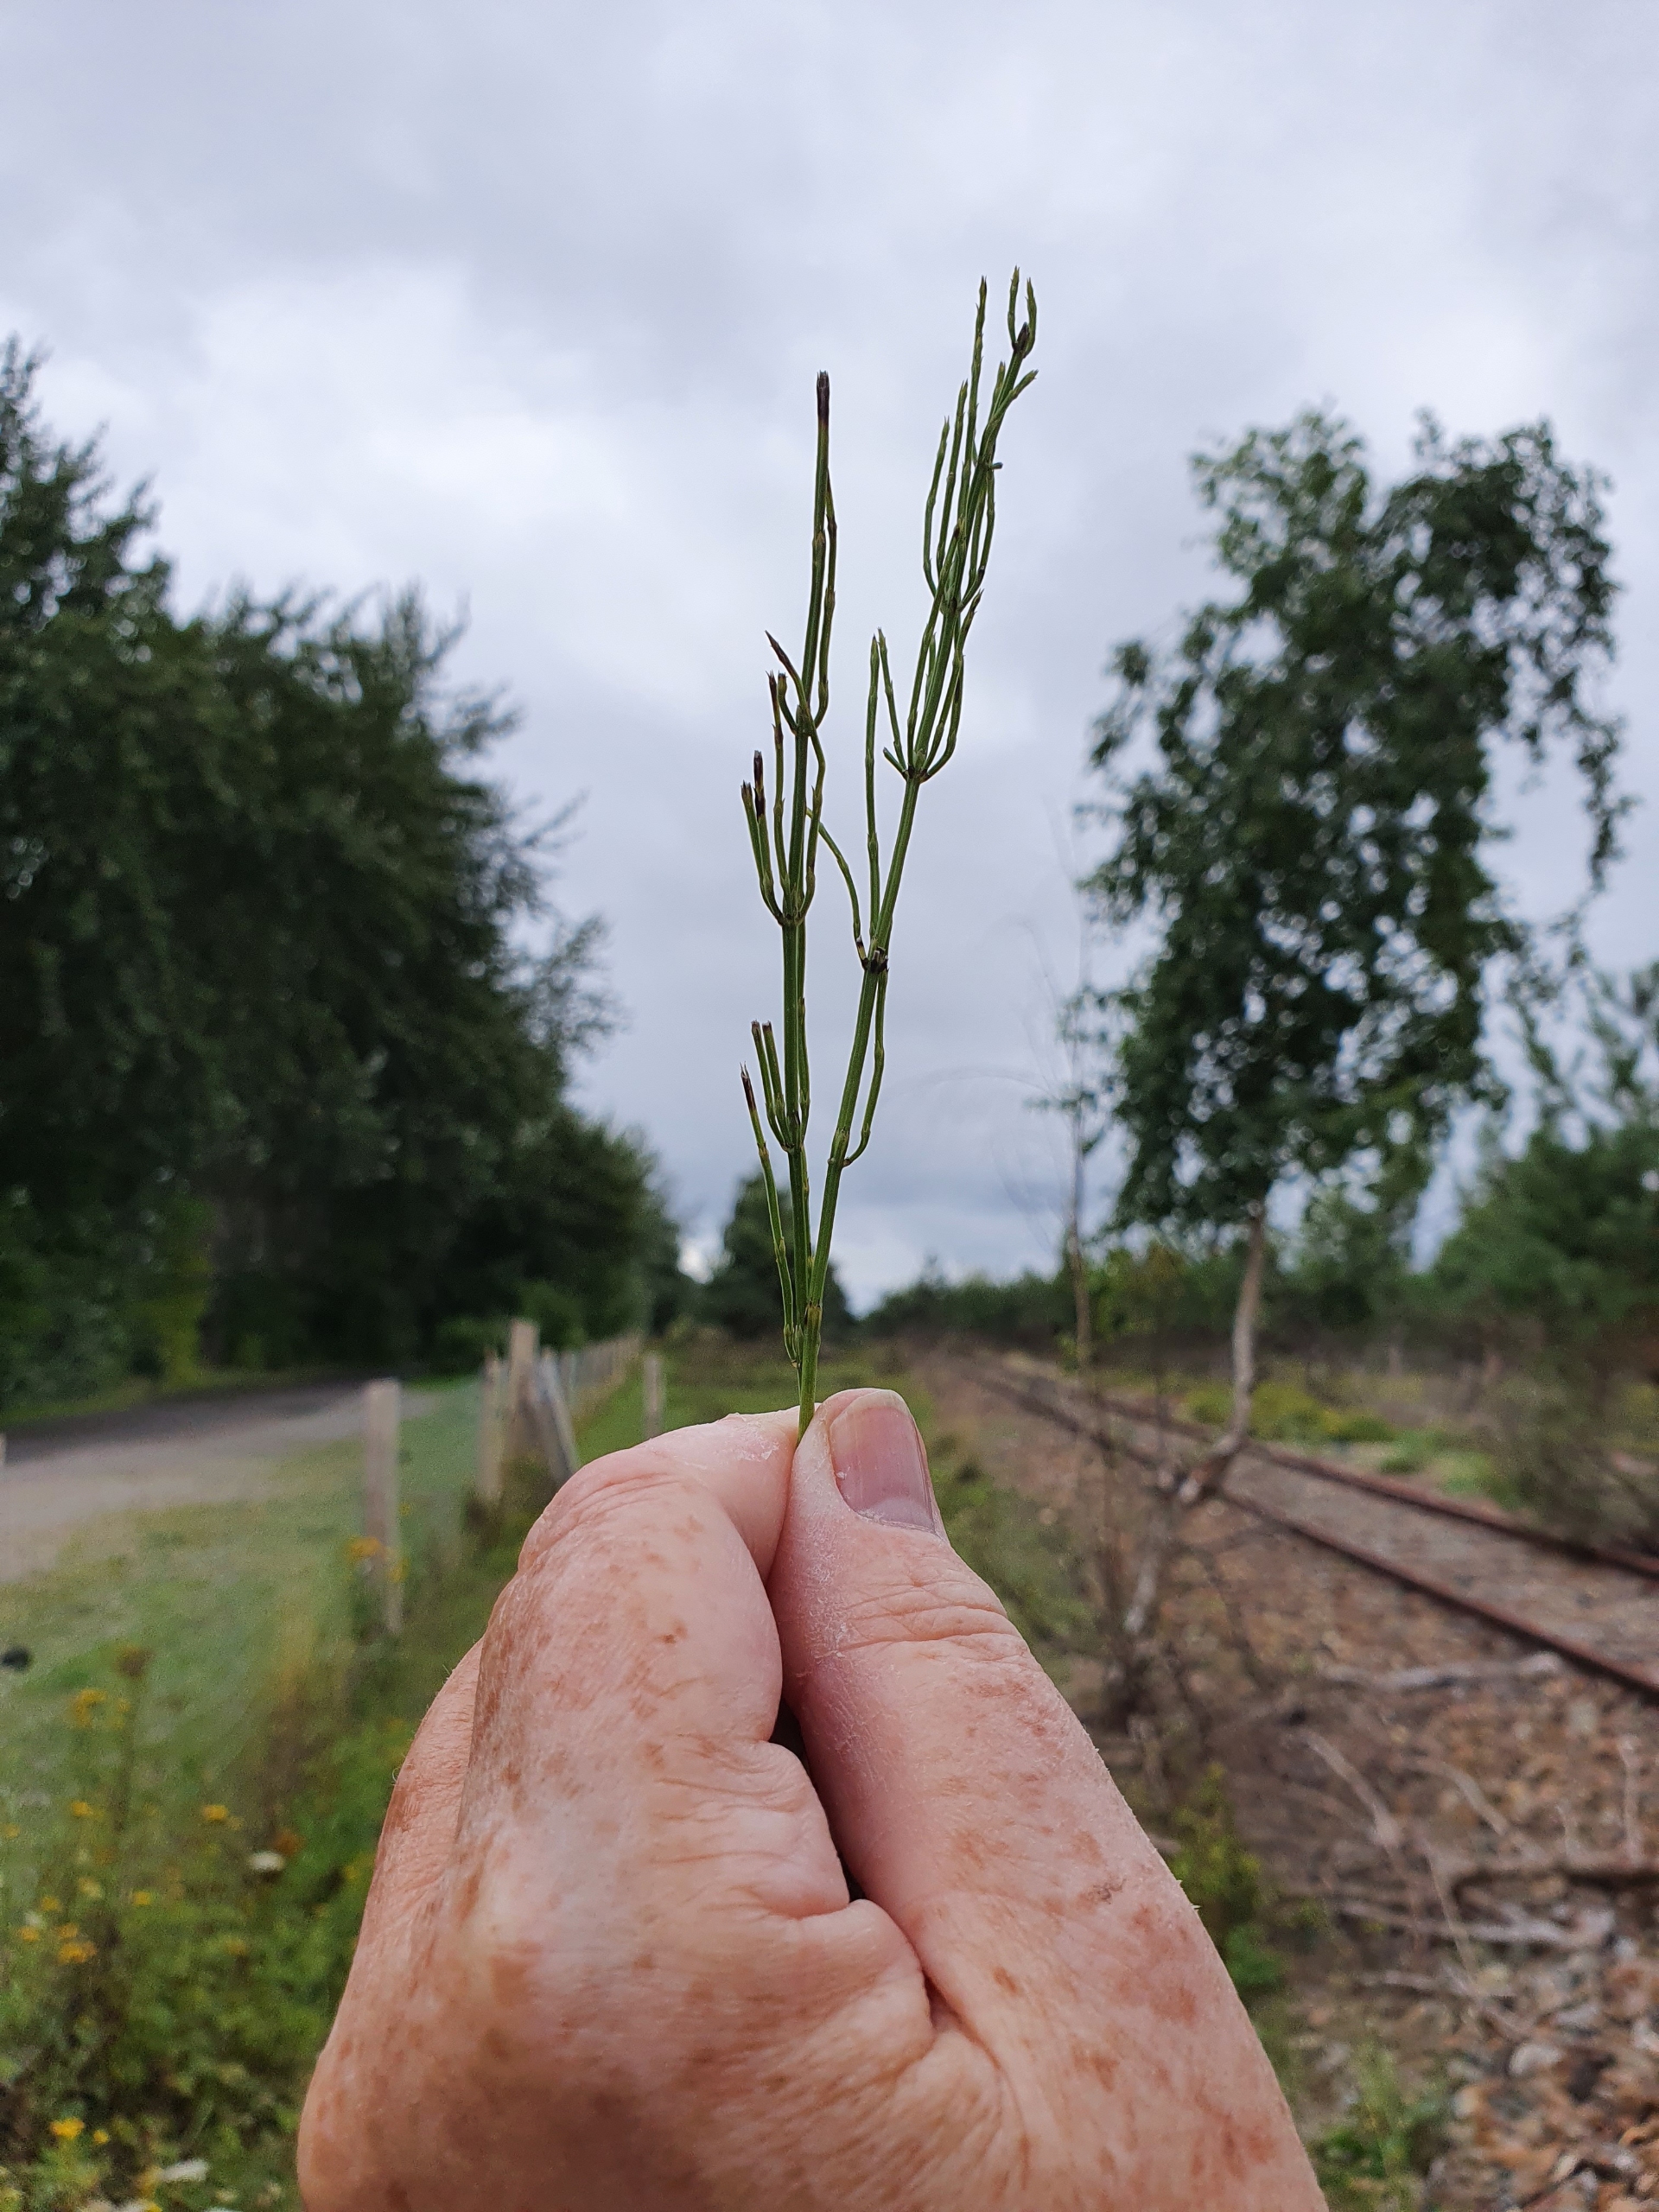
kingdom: Plantae
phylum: Tracheophyta
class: Polypodiopsida
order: Equisetales
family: Equisetaceae
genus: Equisetum
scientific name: Equisetum arvense
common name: Ager-padderok
